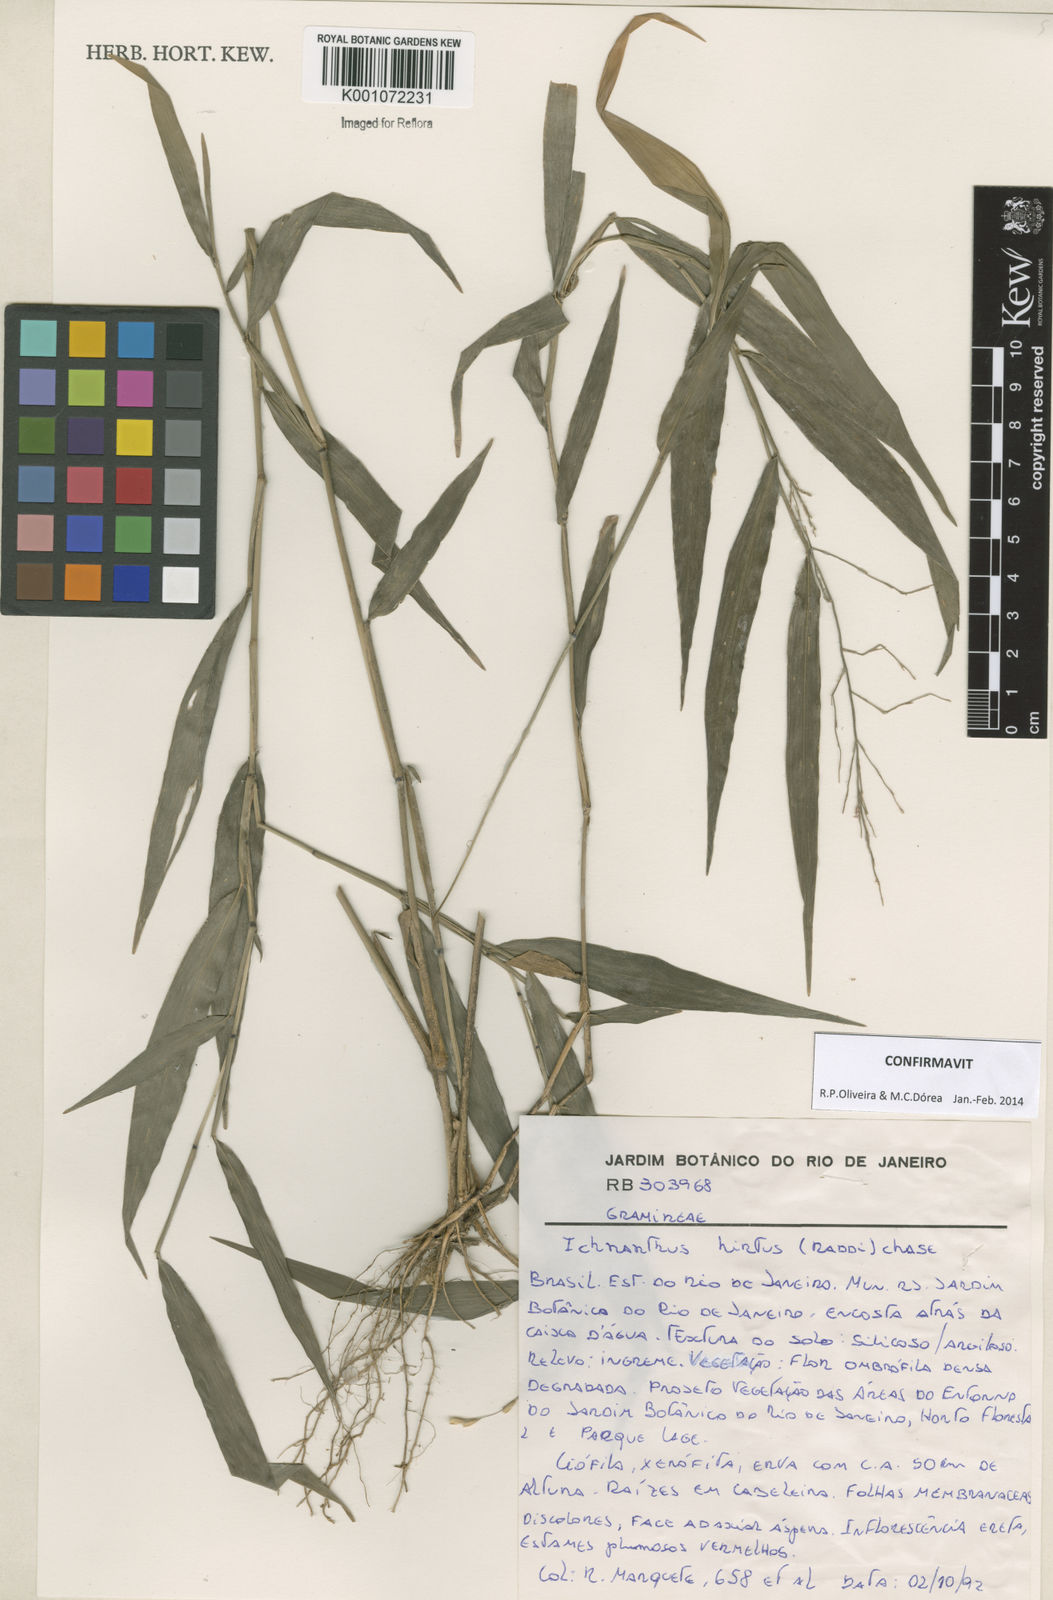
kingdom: Plantae
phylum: Tracheophyta
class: Liliopsida
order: Poales
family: Poaceae
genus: Ichnanthus
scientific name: Ichnanthus hirtus
